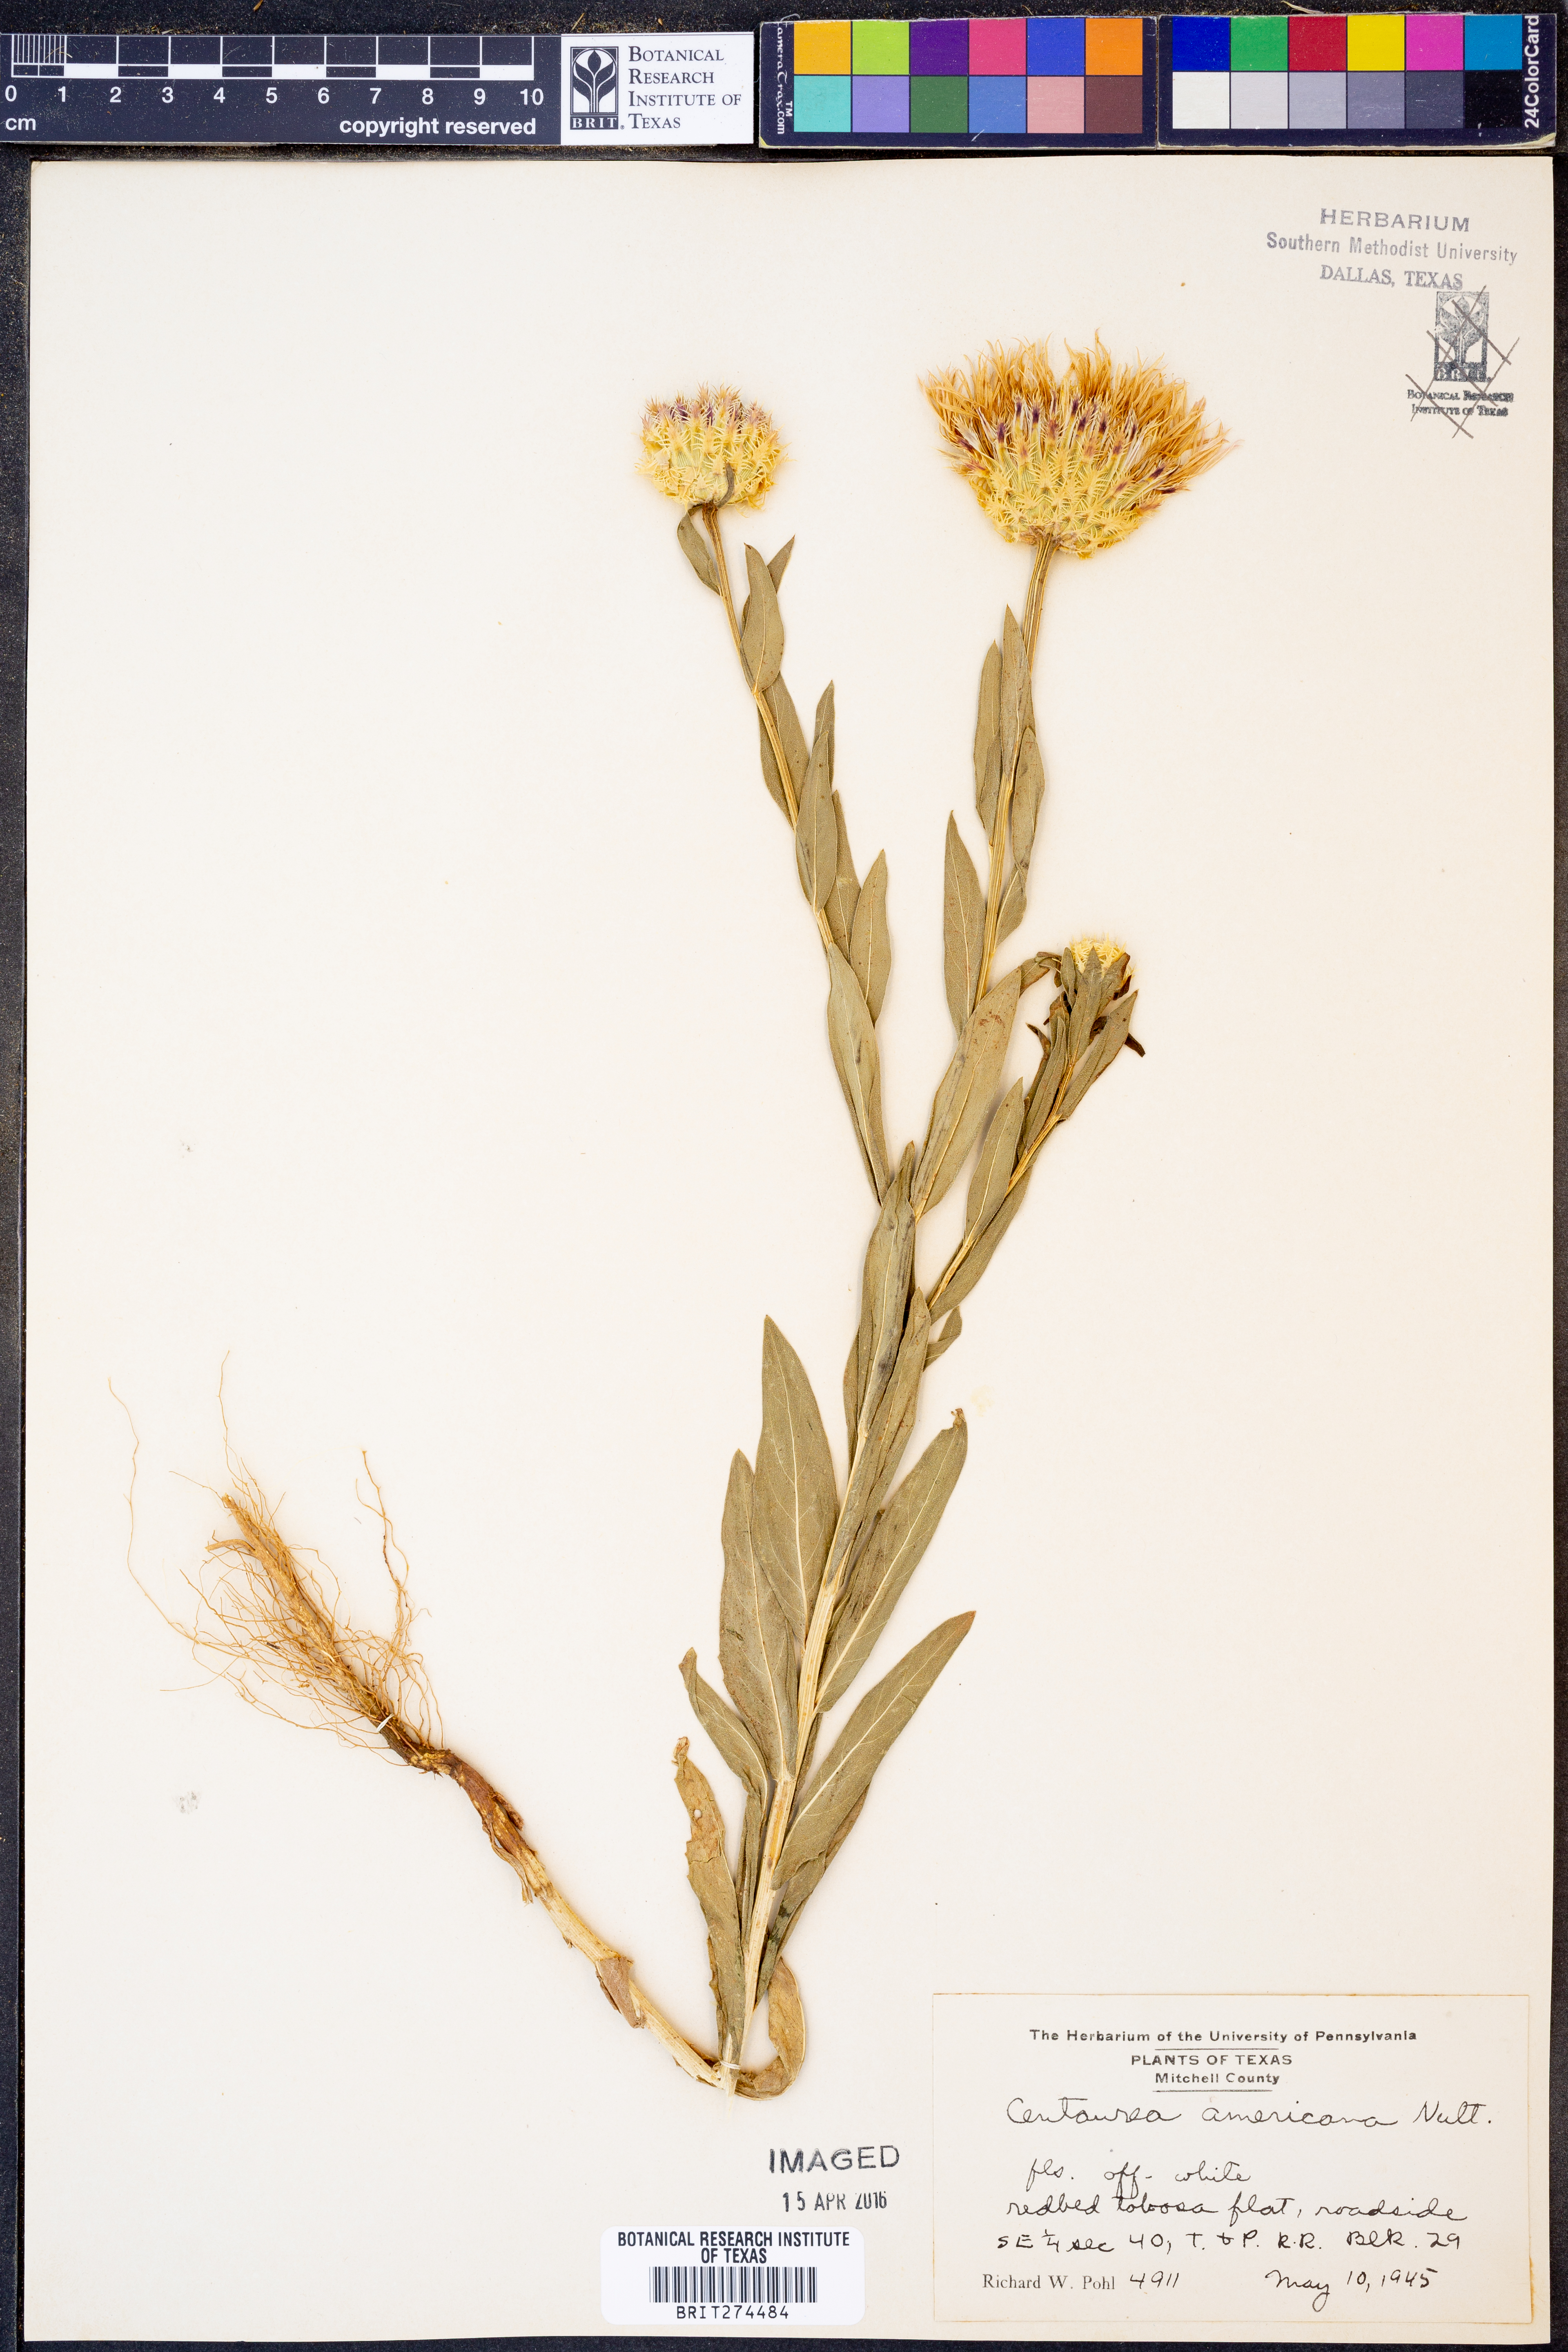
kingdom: Plantae
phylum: Tracheophyta
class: Magnoliopsida
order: Asterales
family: Asteraceae
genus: Plectocephalus
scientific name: Plectocephalus americanus
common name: American basket-flower
